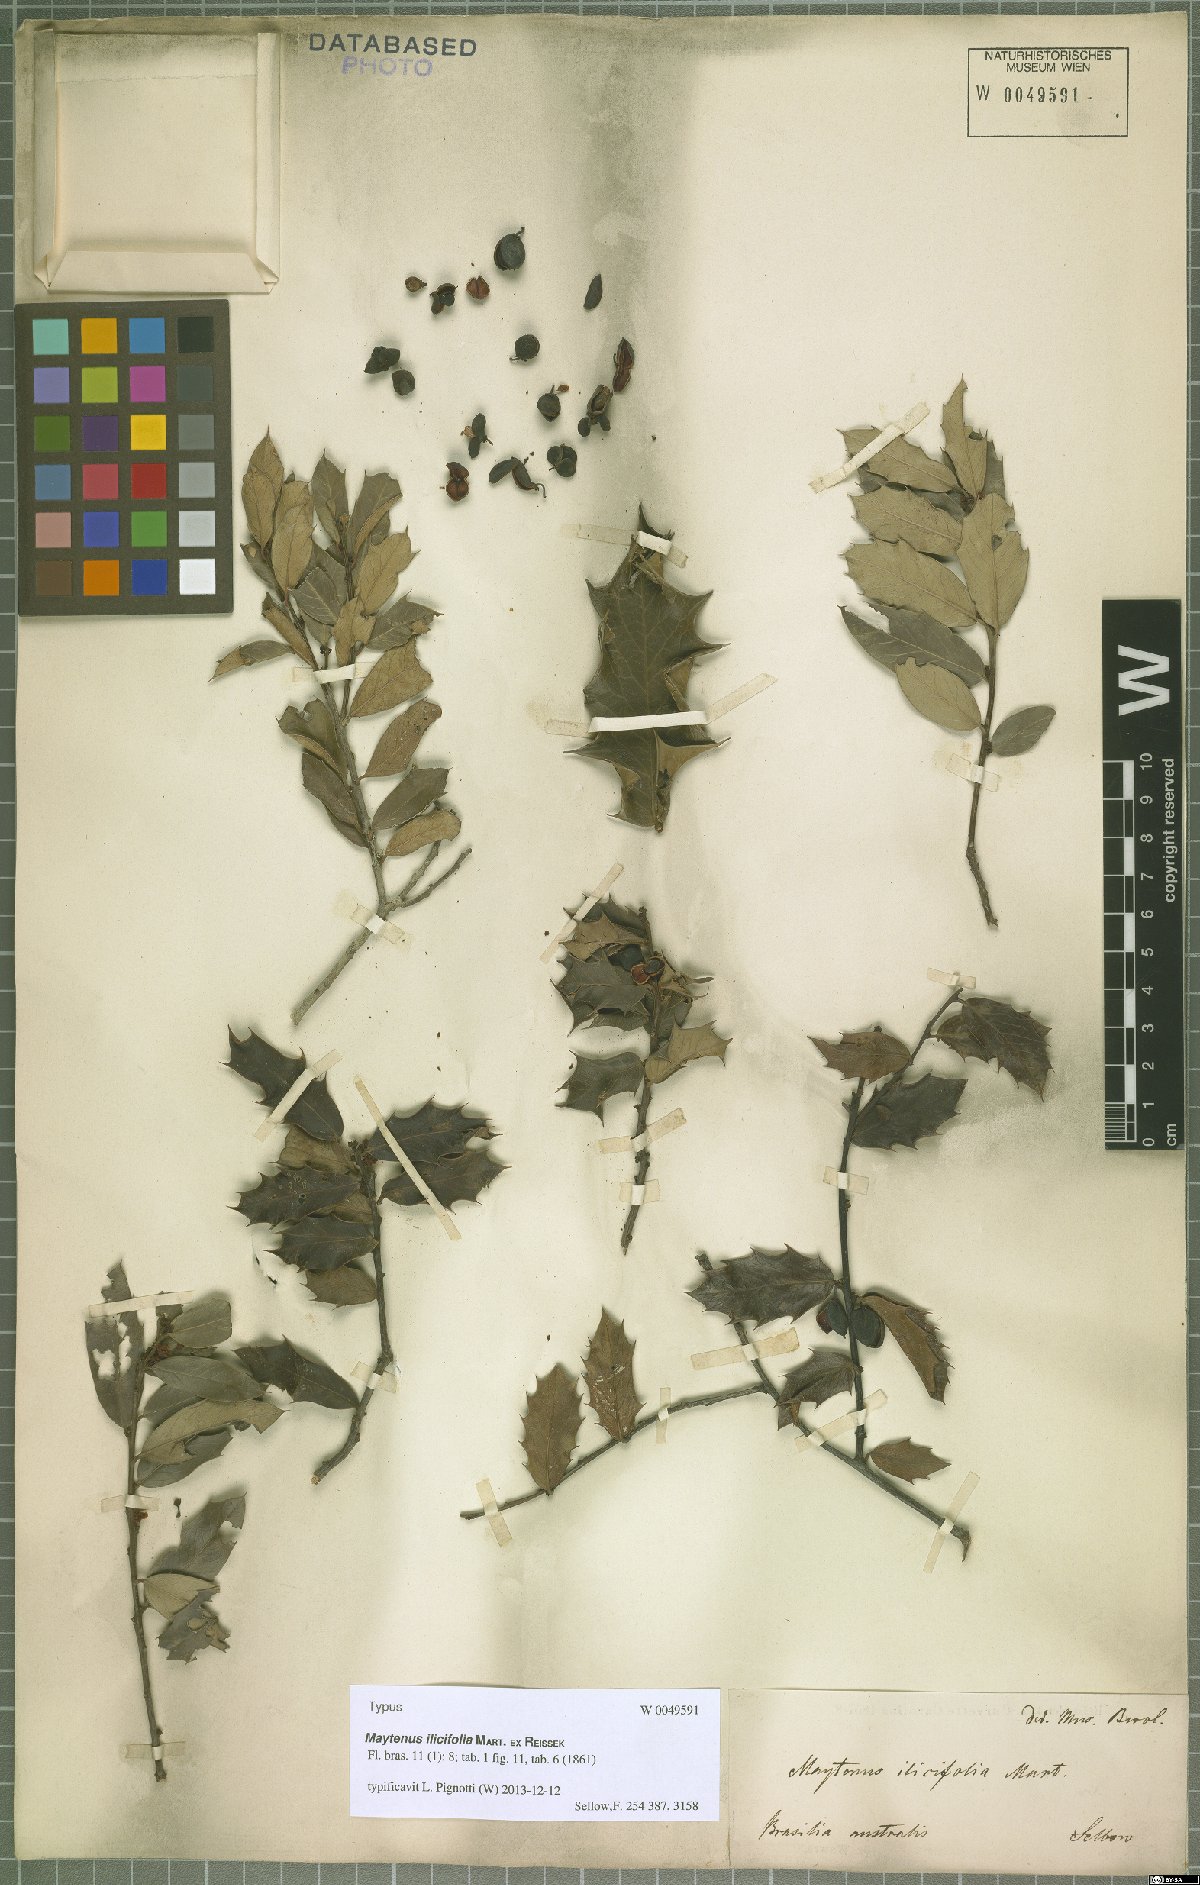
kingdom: Plantae
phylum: Tracheophyta
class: Magnoliopsida
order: Celastrales
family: Celastraceae
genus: Monteverdia
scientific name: Monteverdia ilicifolia
